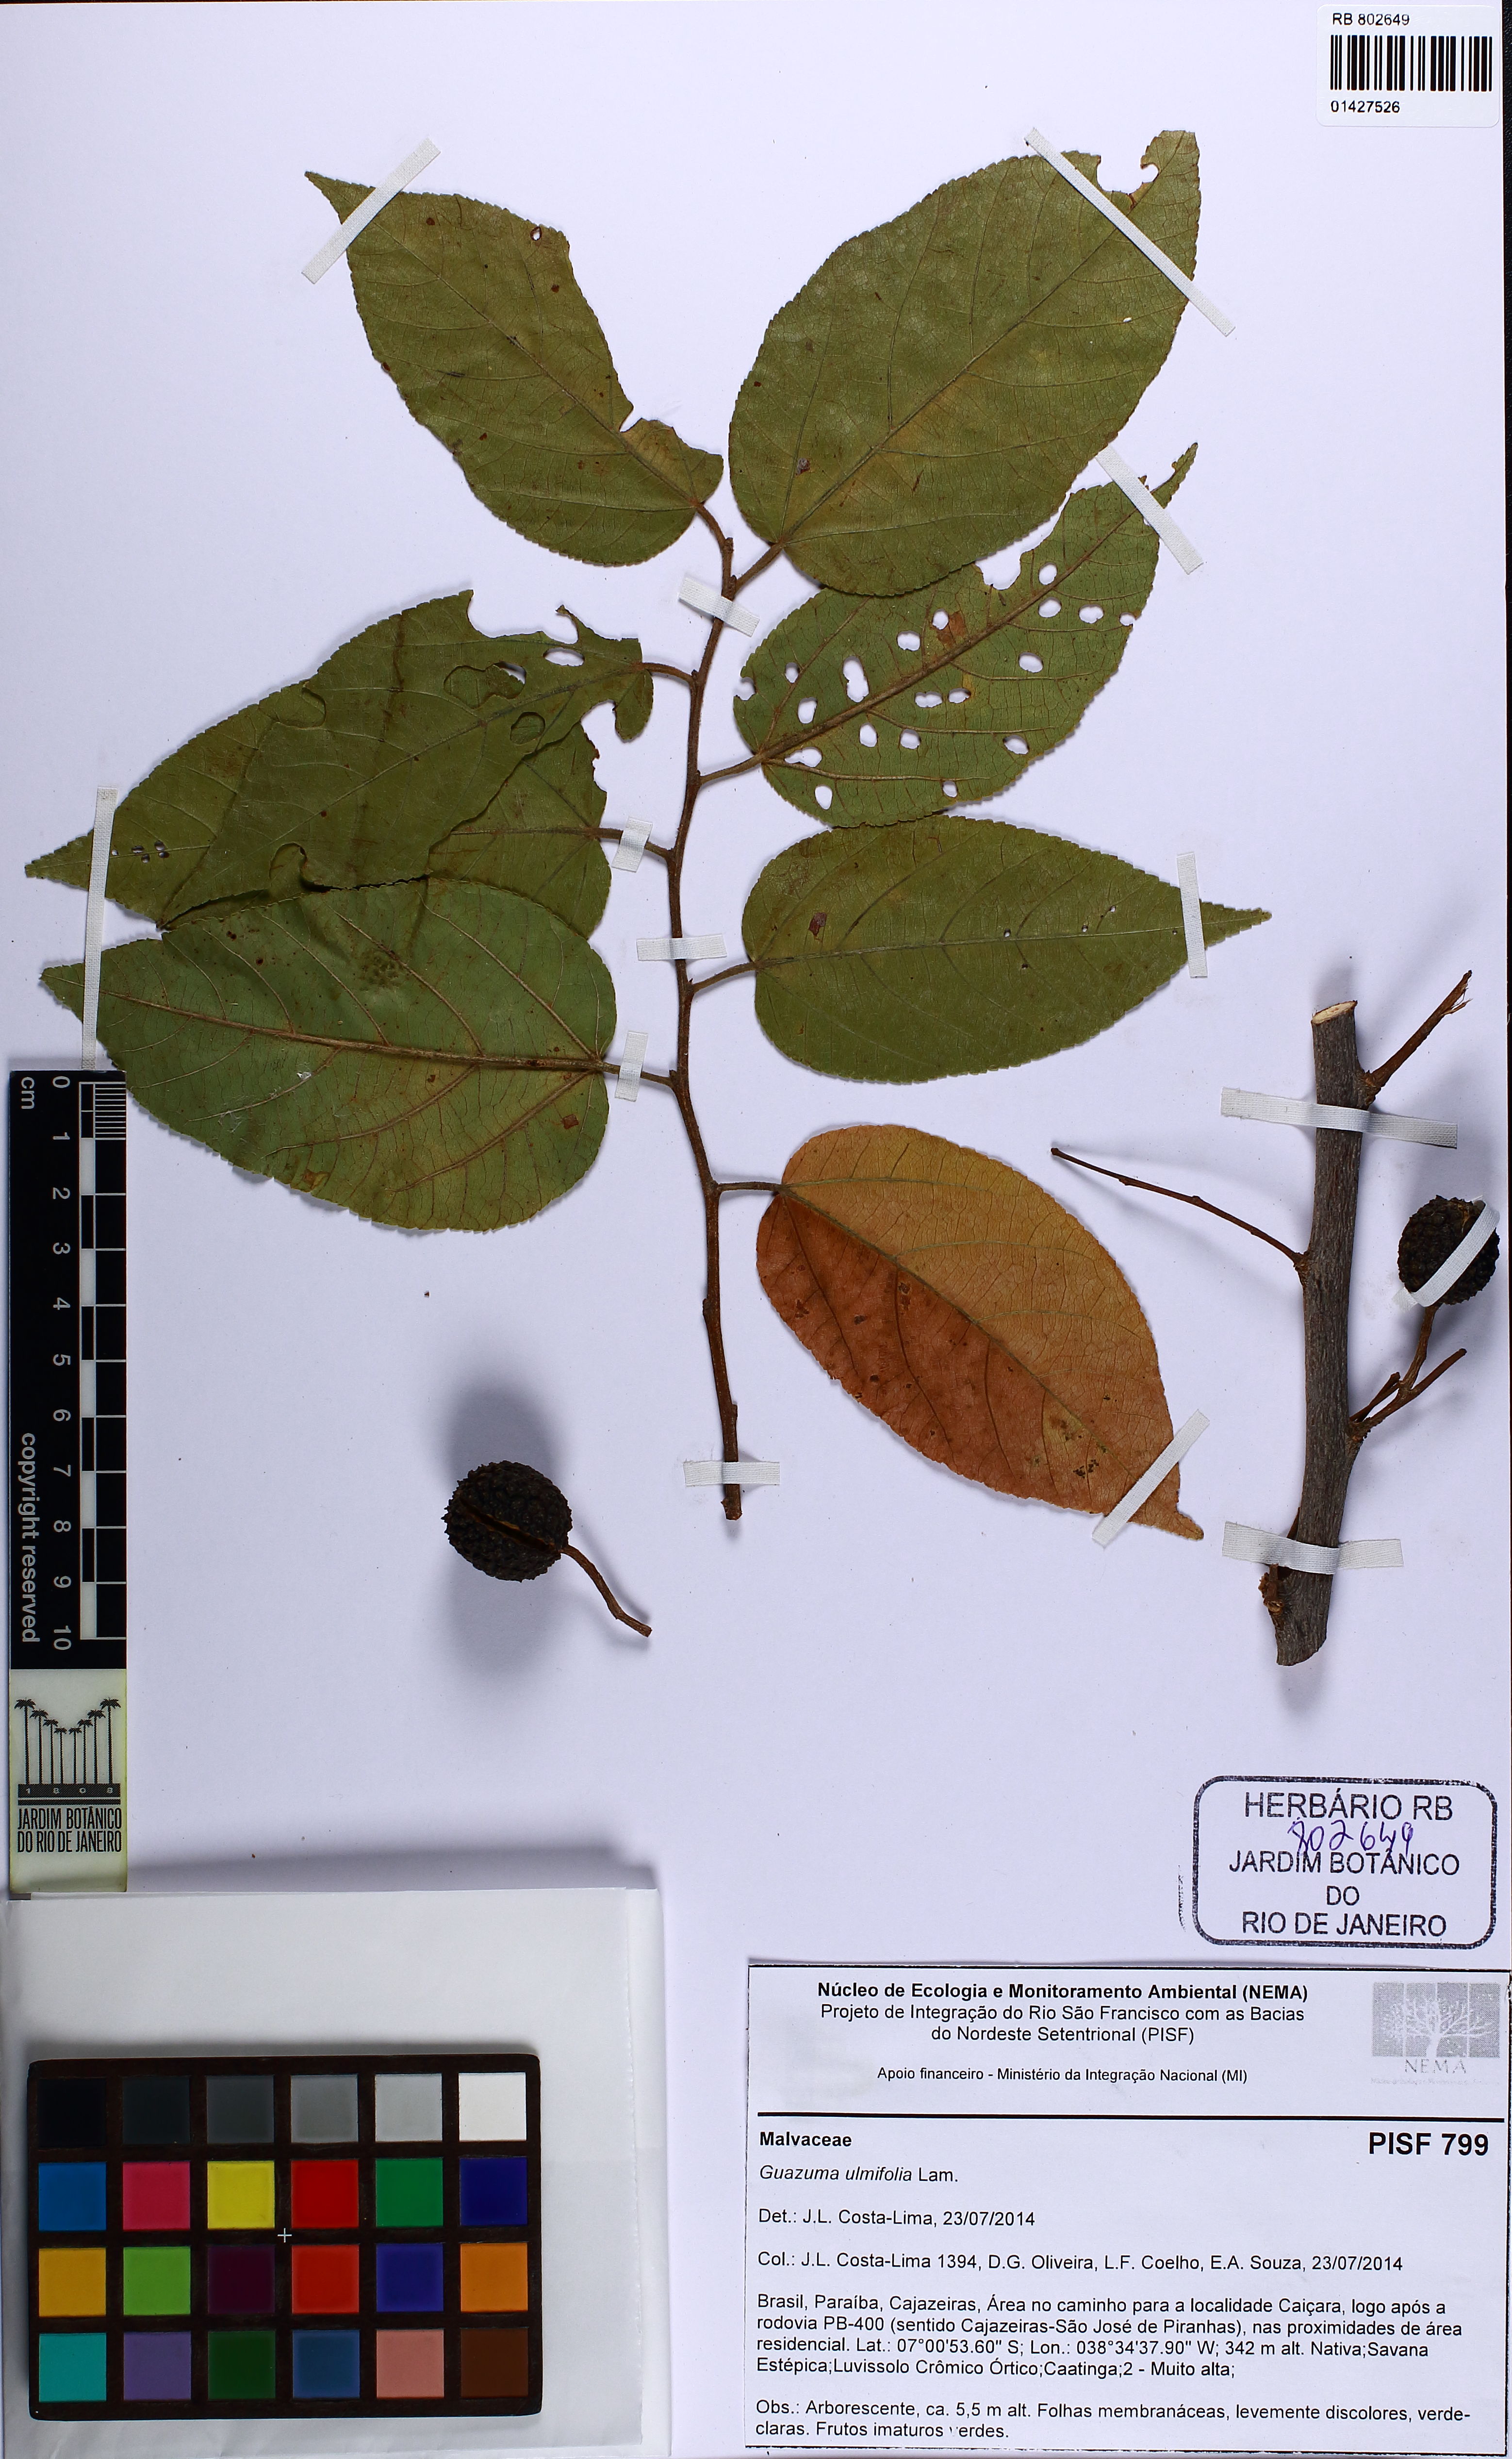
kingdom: Plantae
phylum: Tracheophyta
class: Magnoliopsida
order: Malvales
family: Malvaceae
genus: Guazuma
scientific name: Guazuma ulmifolia
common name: Bastard-cedar
